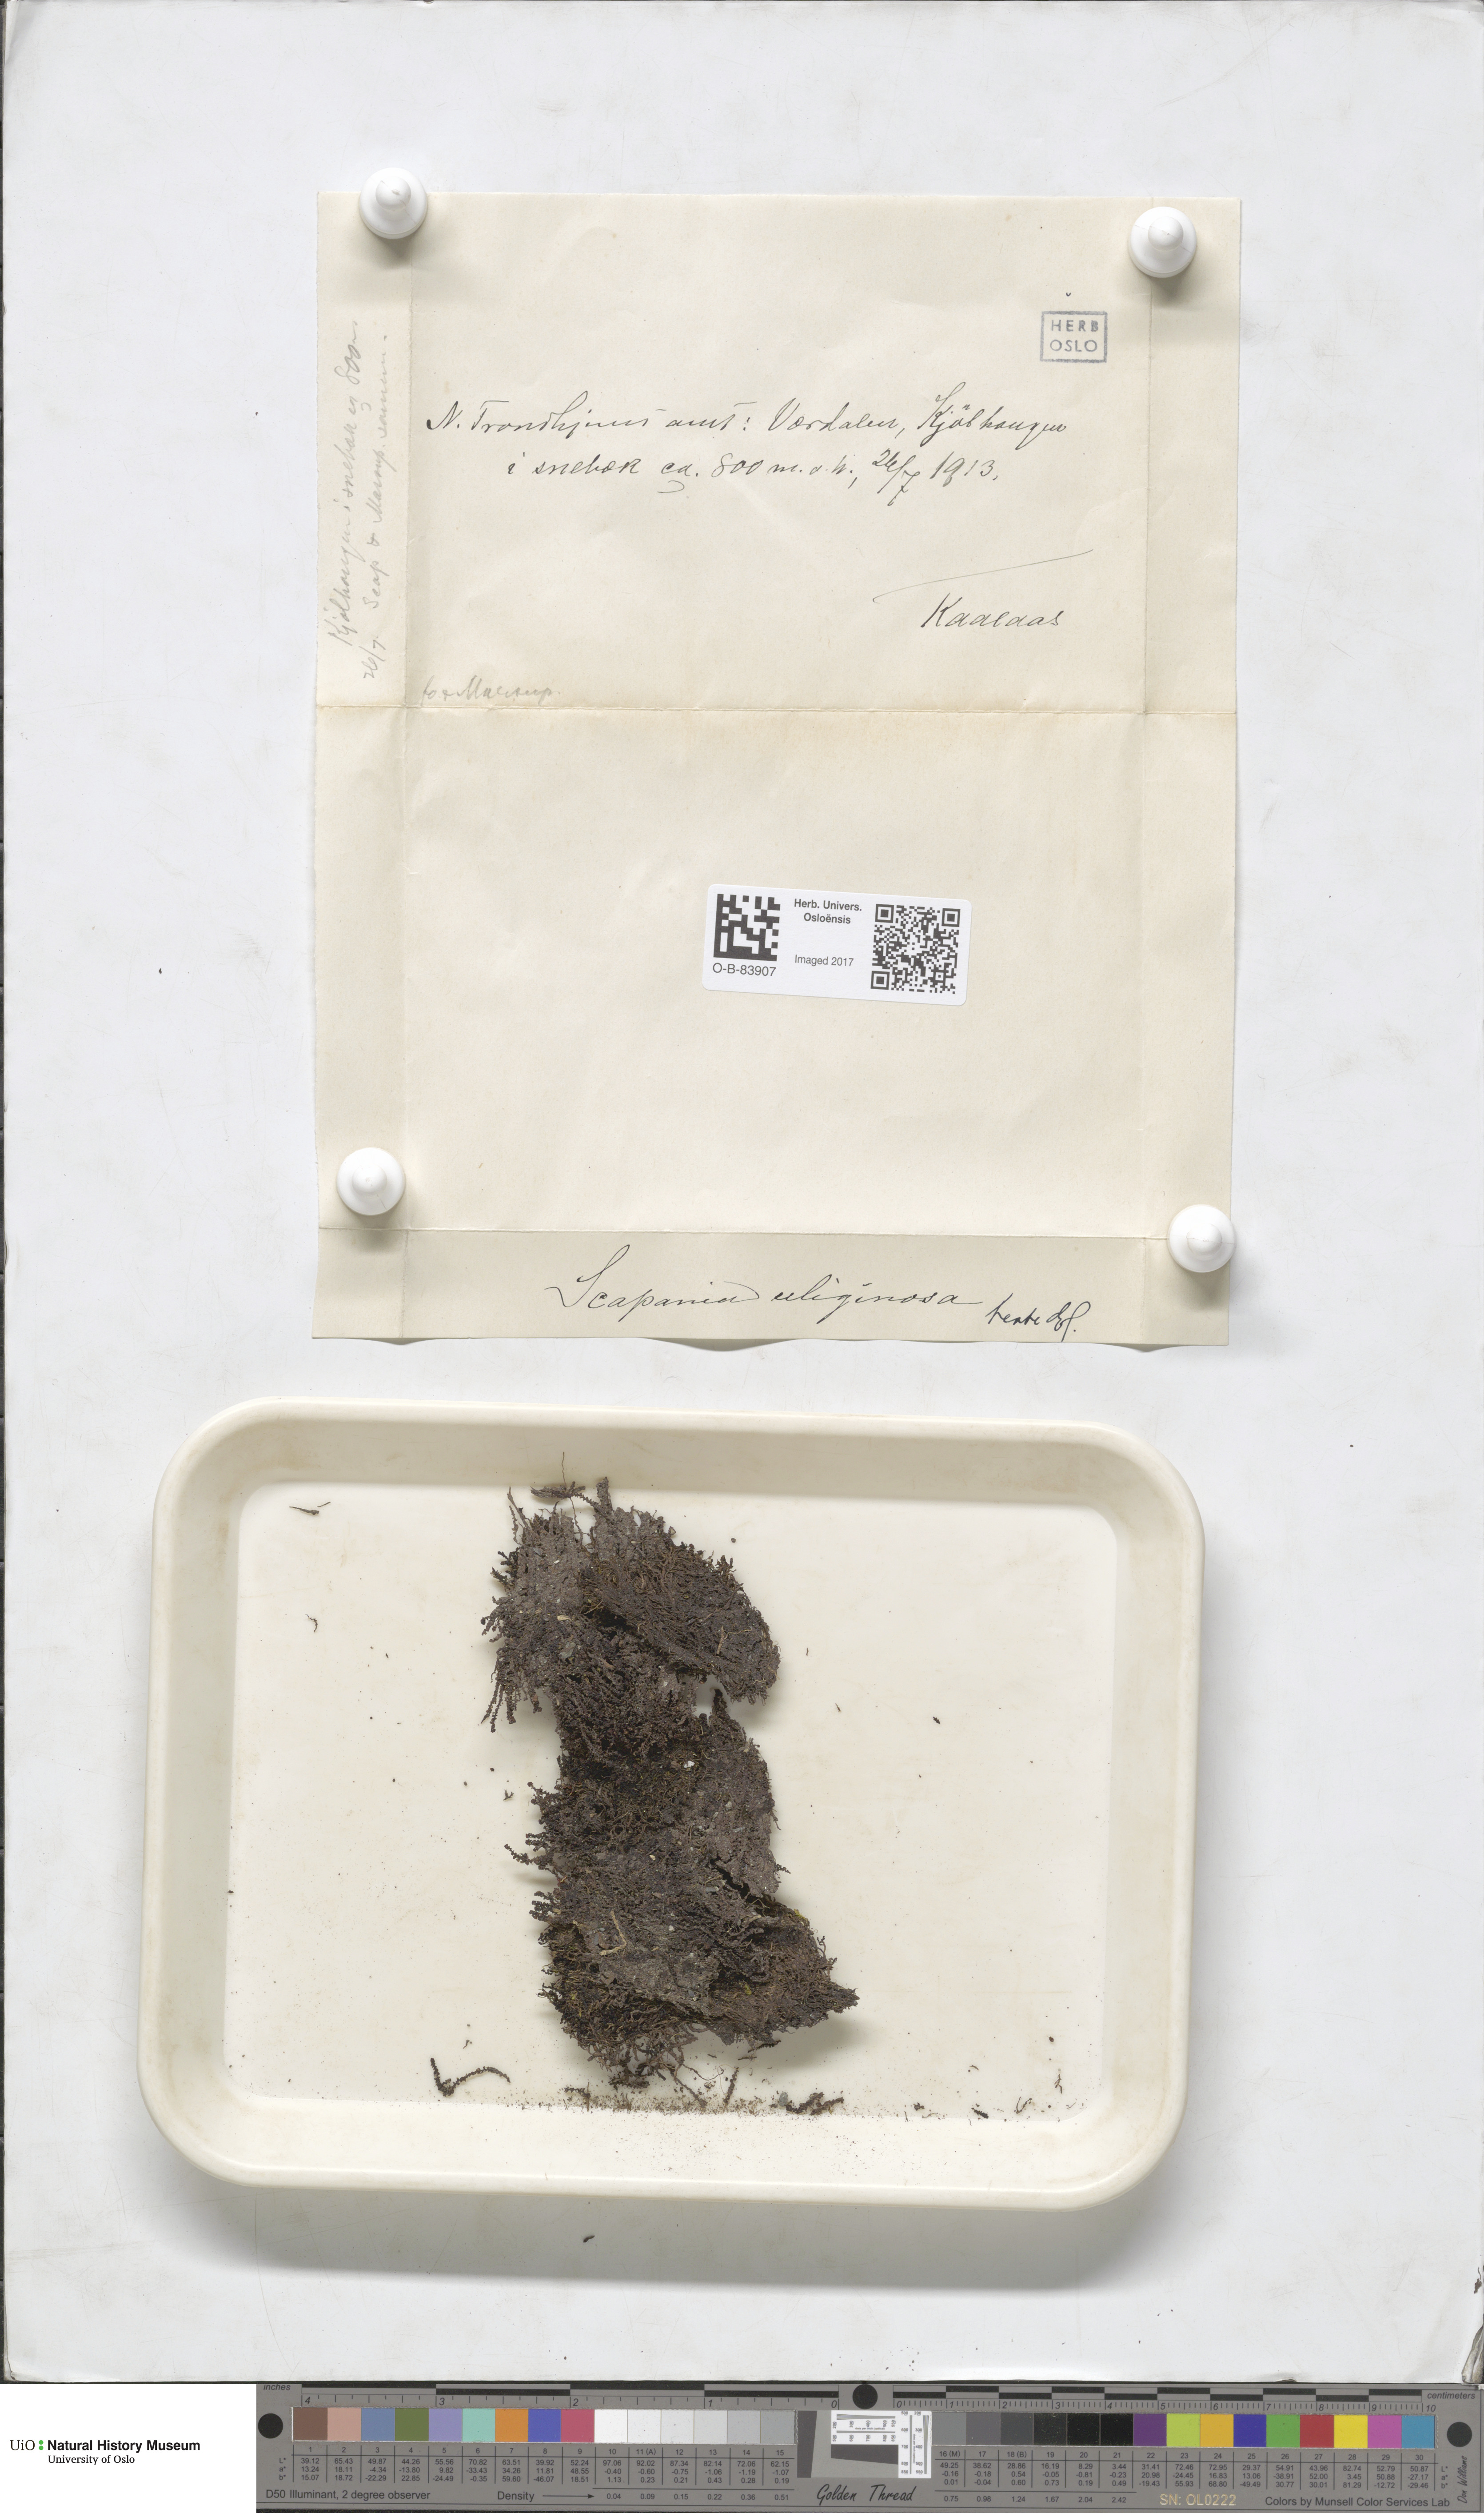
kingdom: Plantae
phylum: Marchantiophyta
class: Jungermanniopsida
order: Jungermanniales
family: Scapaniaceae
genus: Scapania
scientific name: Scapania uliginosa
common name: Marsh earwort
